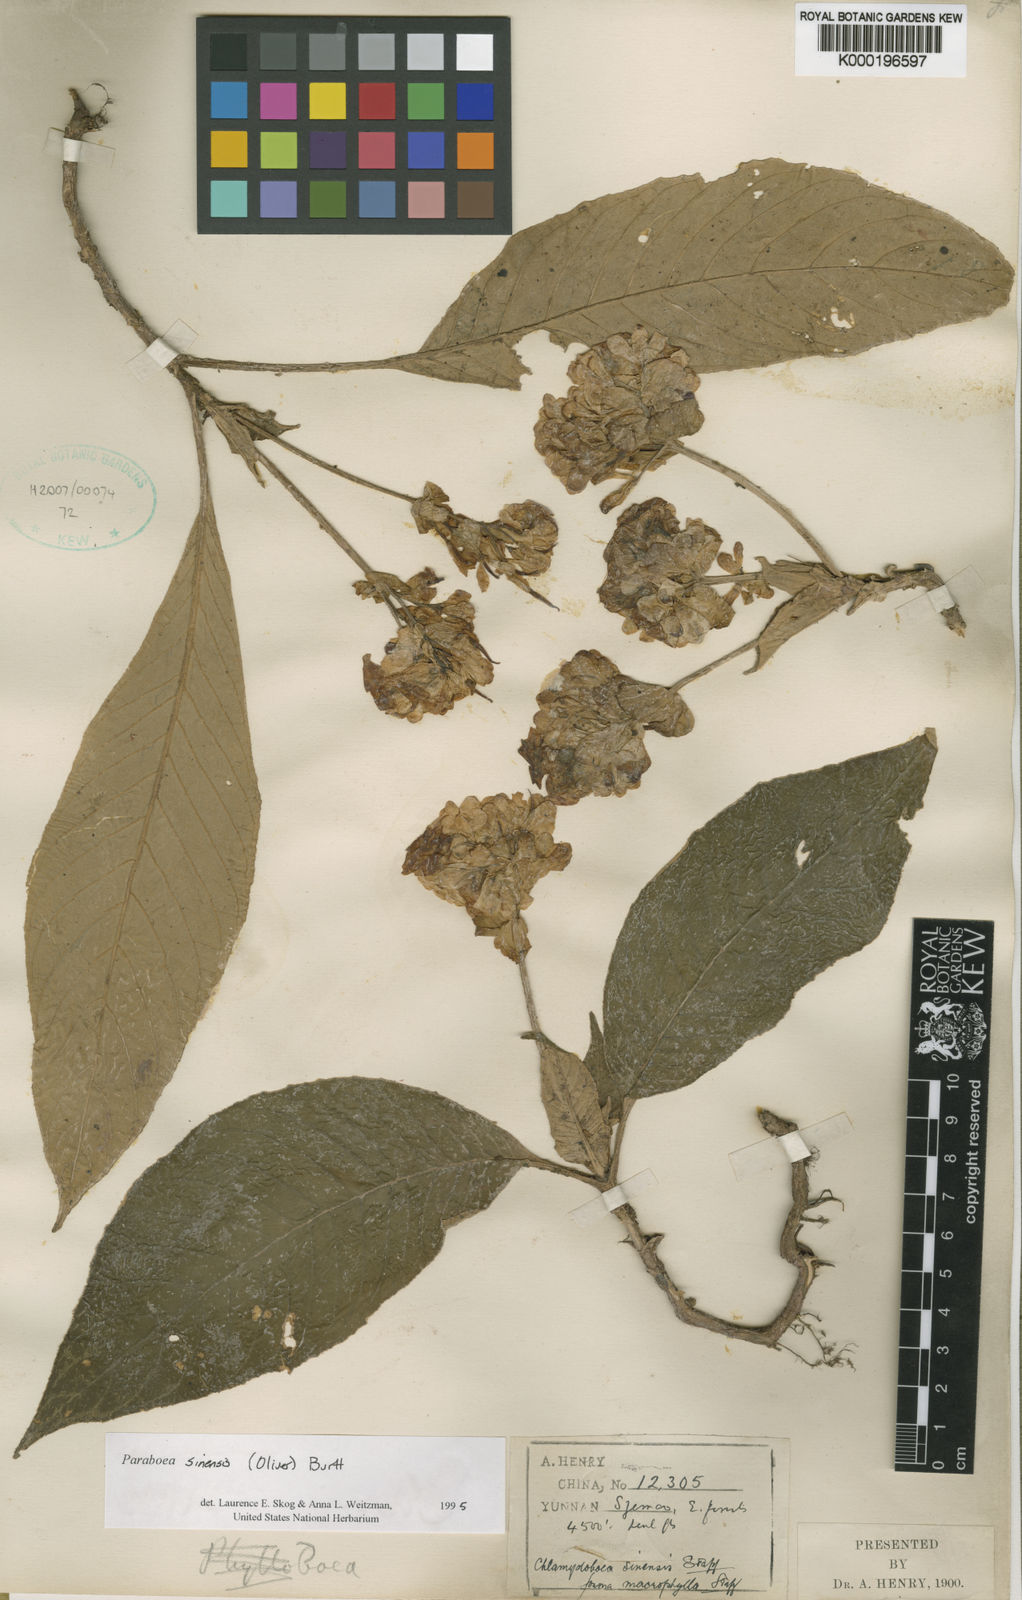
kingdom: Plantae
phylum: Tracheophyta
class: Magnoliopsida
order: Lamiales
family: Gesneriaceae
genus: Paraboea
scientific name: Paraboea sinensis
